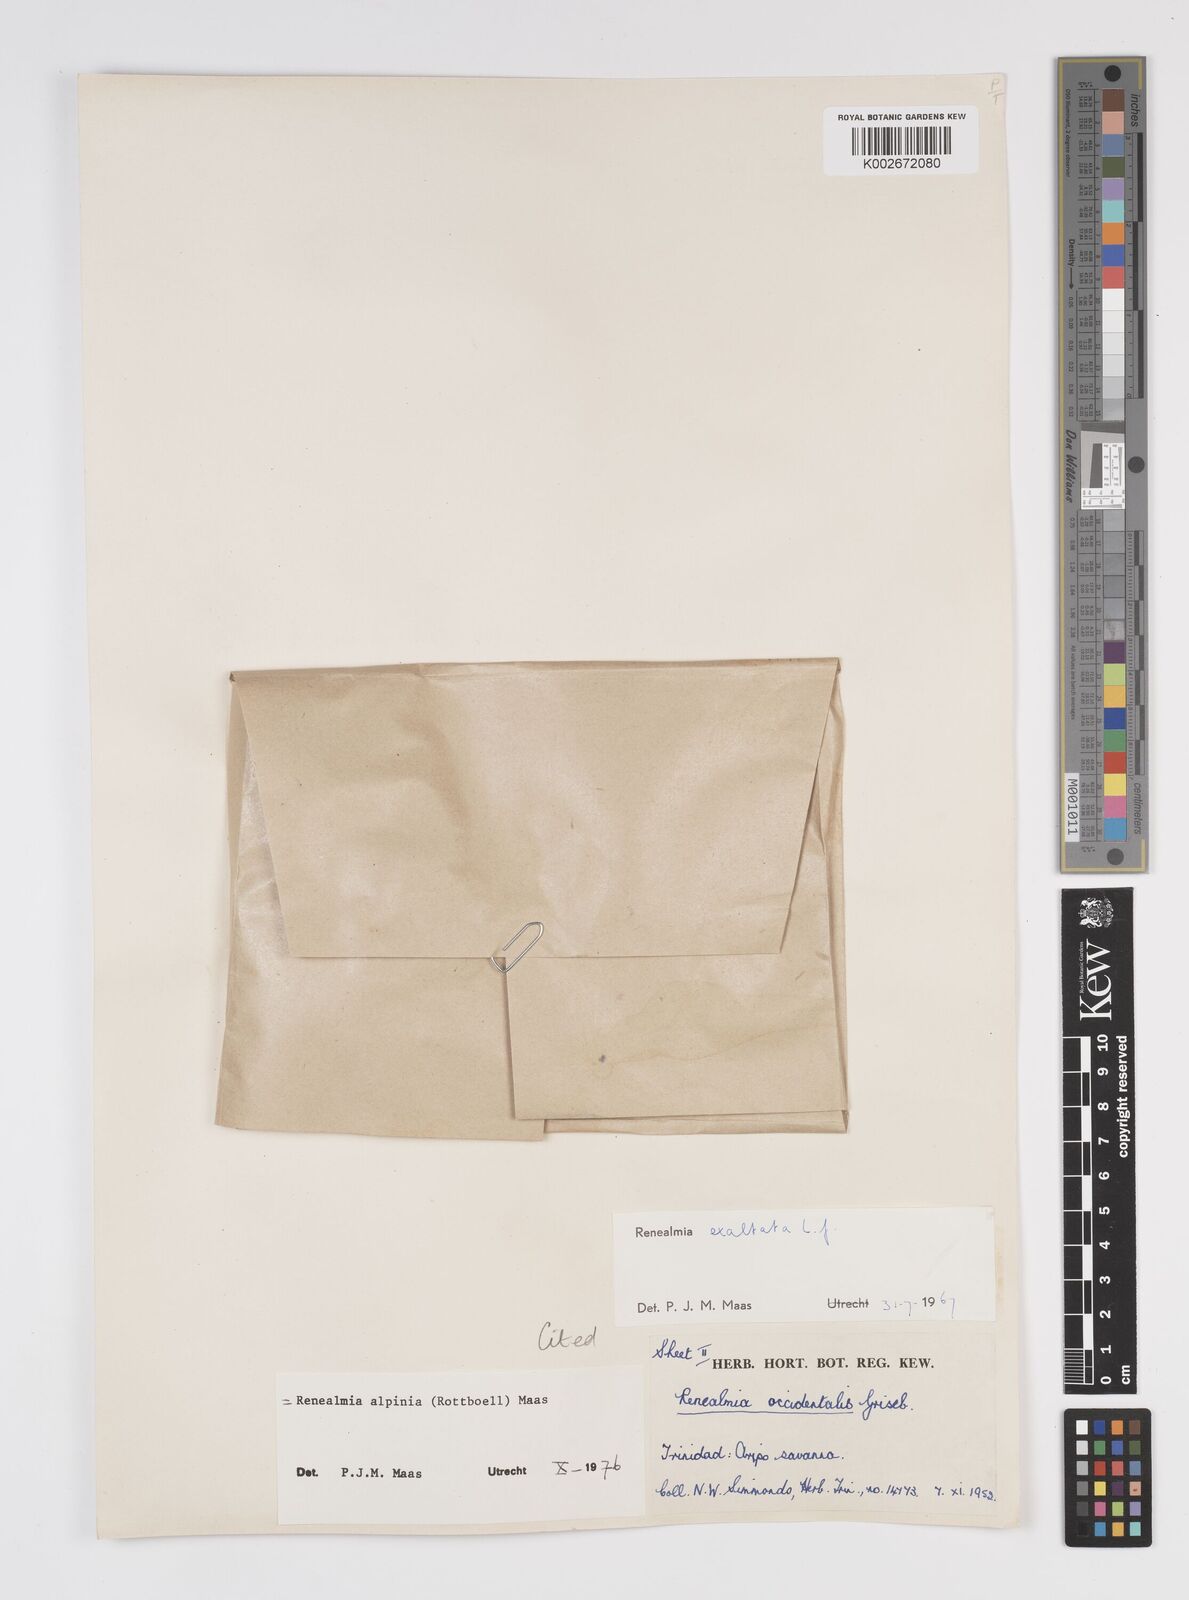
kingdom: Plantae
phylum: Tracheophyta
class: Liliopsida
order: Zingiberales
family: Zingiberaceae
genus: Renealmia
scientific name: Renealmia alpinia
